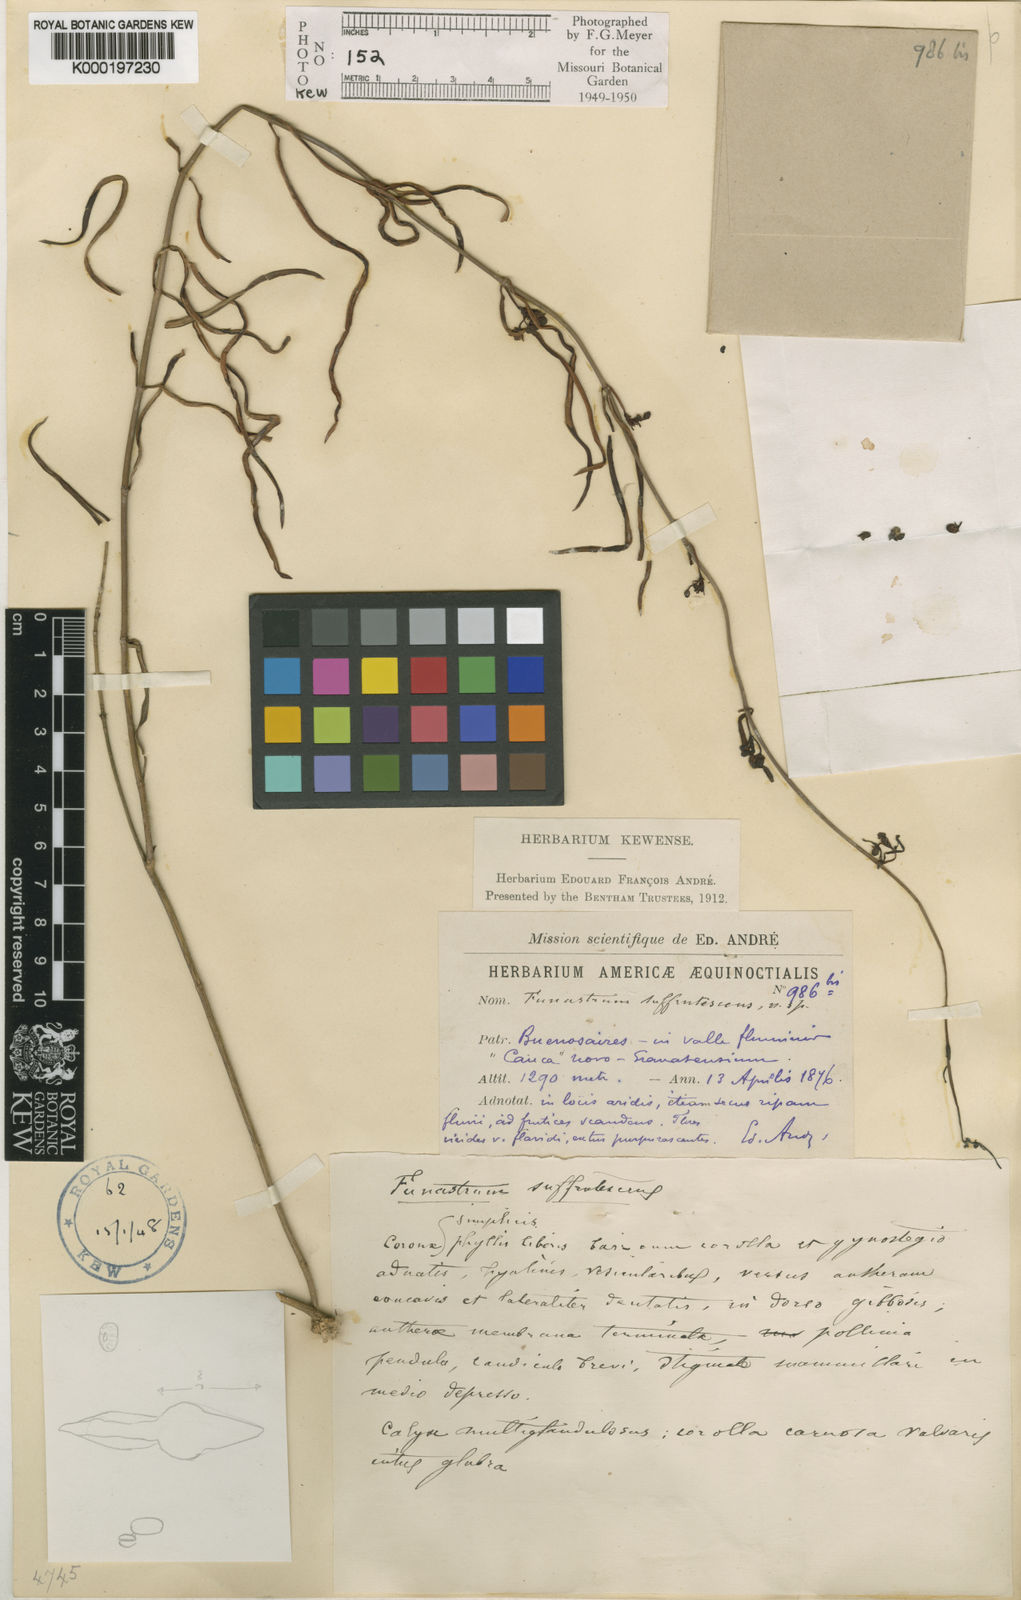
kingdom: Plantae
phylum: Tracheophyta
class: Magnoliopsida
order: Gentianales
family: Apocynaceae
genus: Ditassa
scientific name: Ditassa
